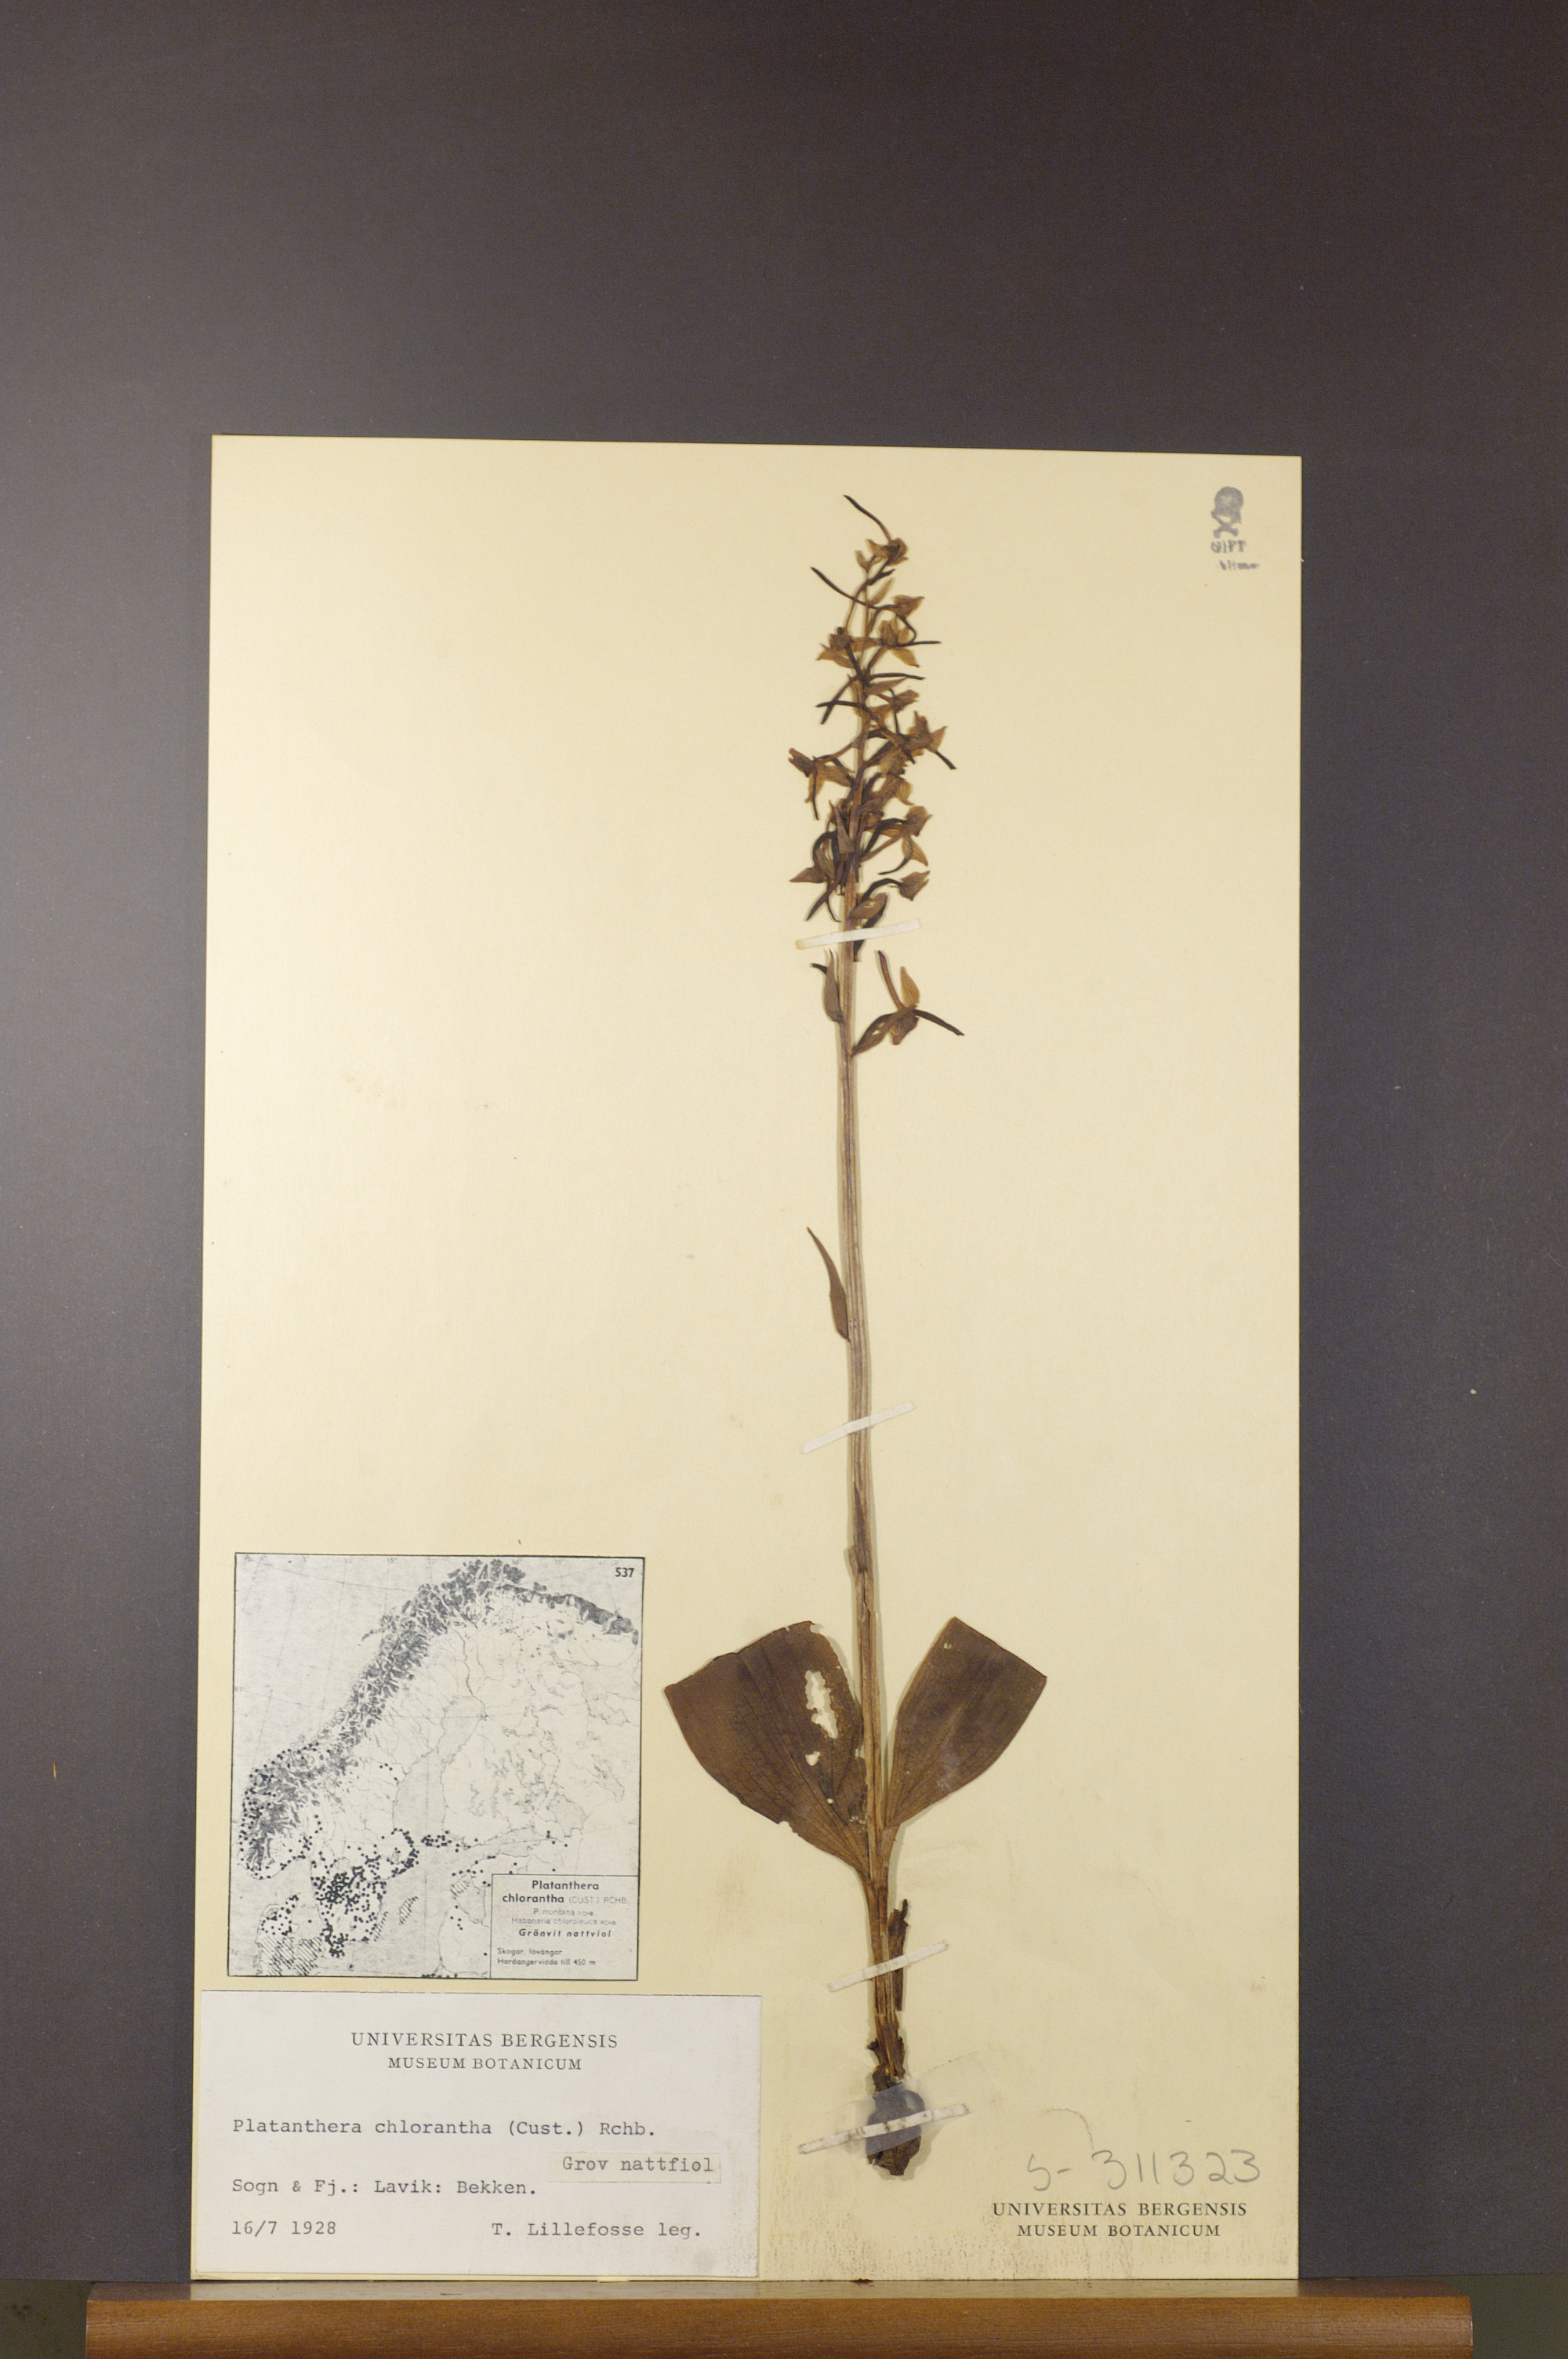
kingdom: Plantae
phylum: Tracheophyta
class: Liliopsida
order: Asparagales
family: Orchidaceae
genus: Platanthera
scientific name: Platanthera chlorantha
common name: Greater butterfly-orchid
